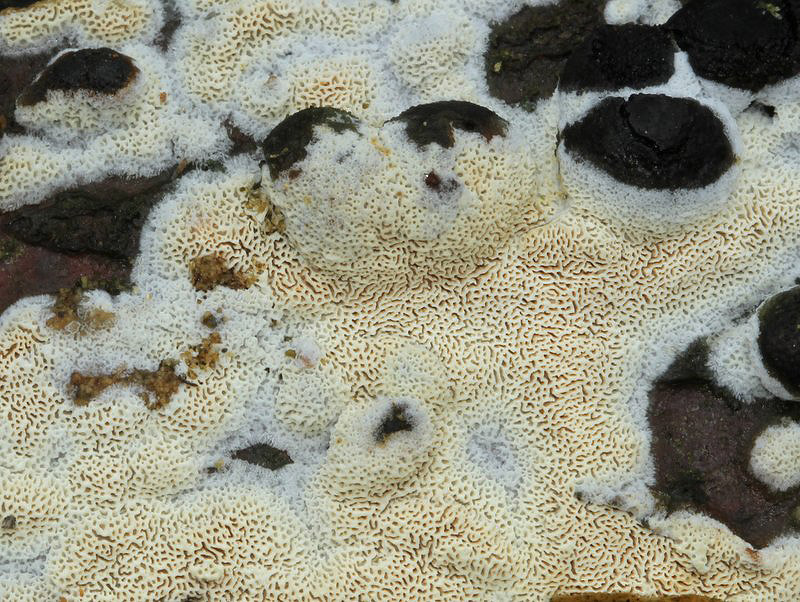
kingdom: Fungi
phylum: Basidiomycota
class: Agaricomycetes
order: Hymenochaetales
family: Schizoporaceae
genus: Xylodon
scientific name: Xylodon subtropicus
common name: labyrint-tandsvamp
